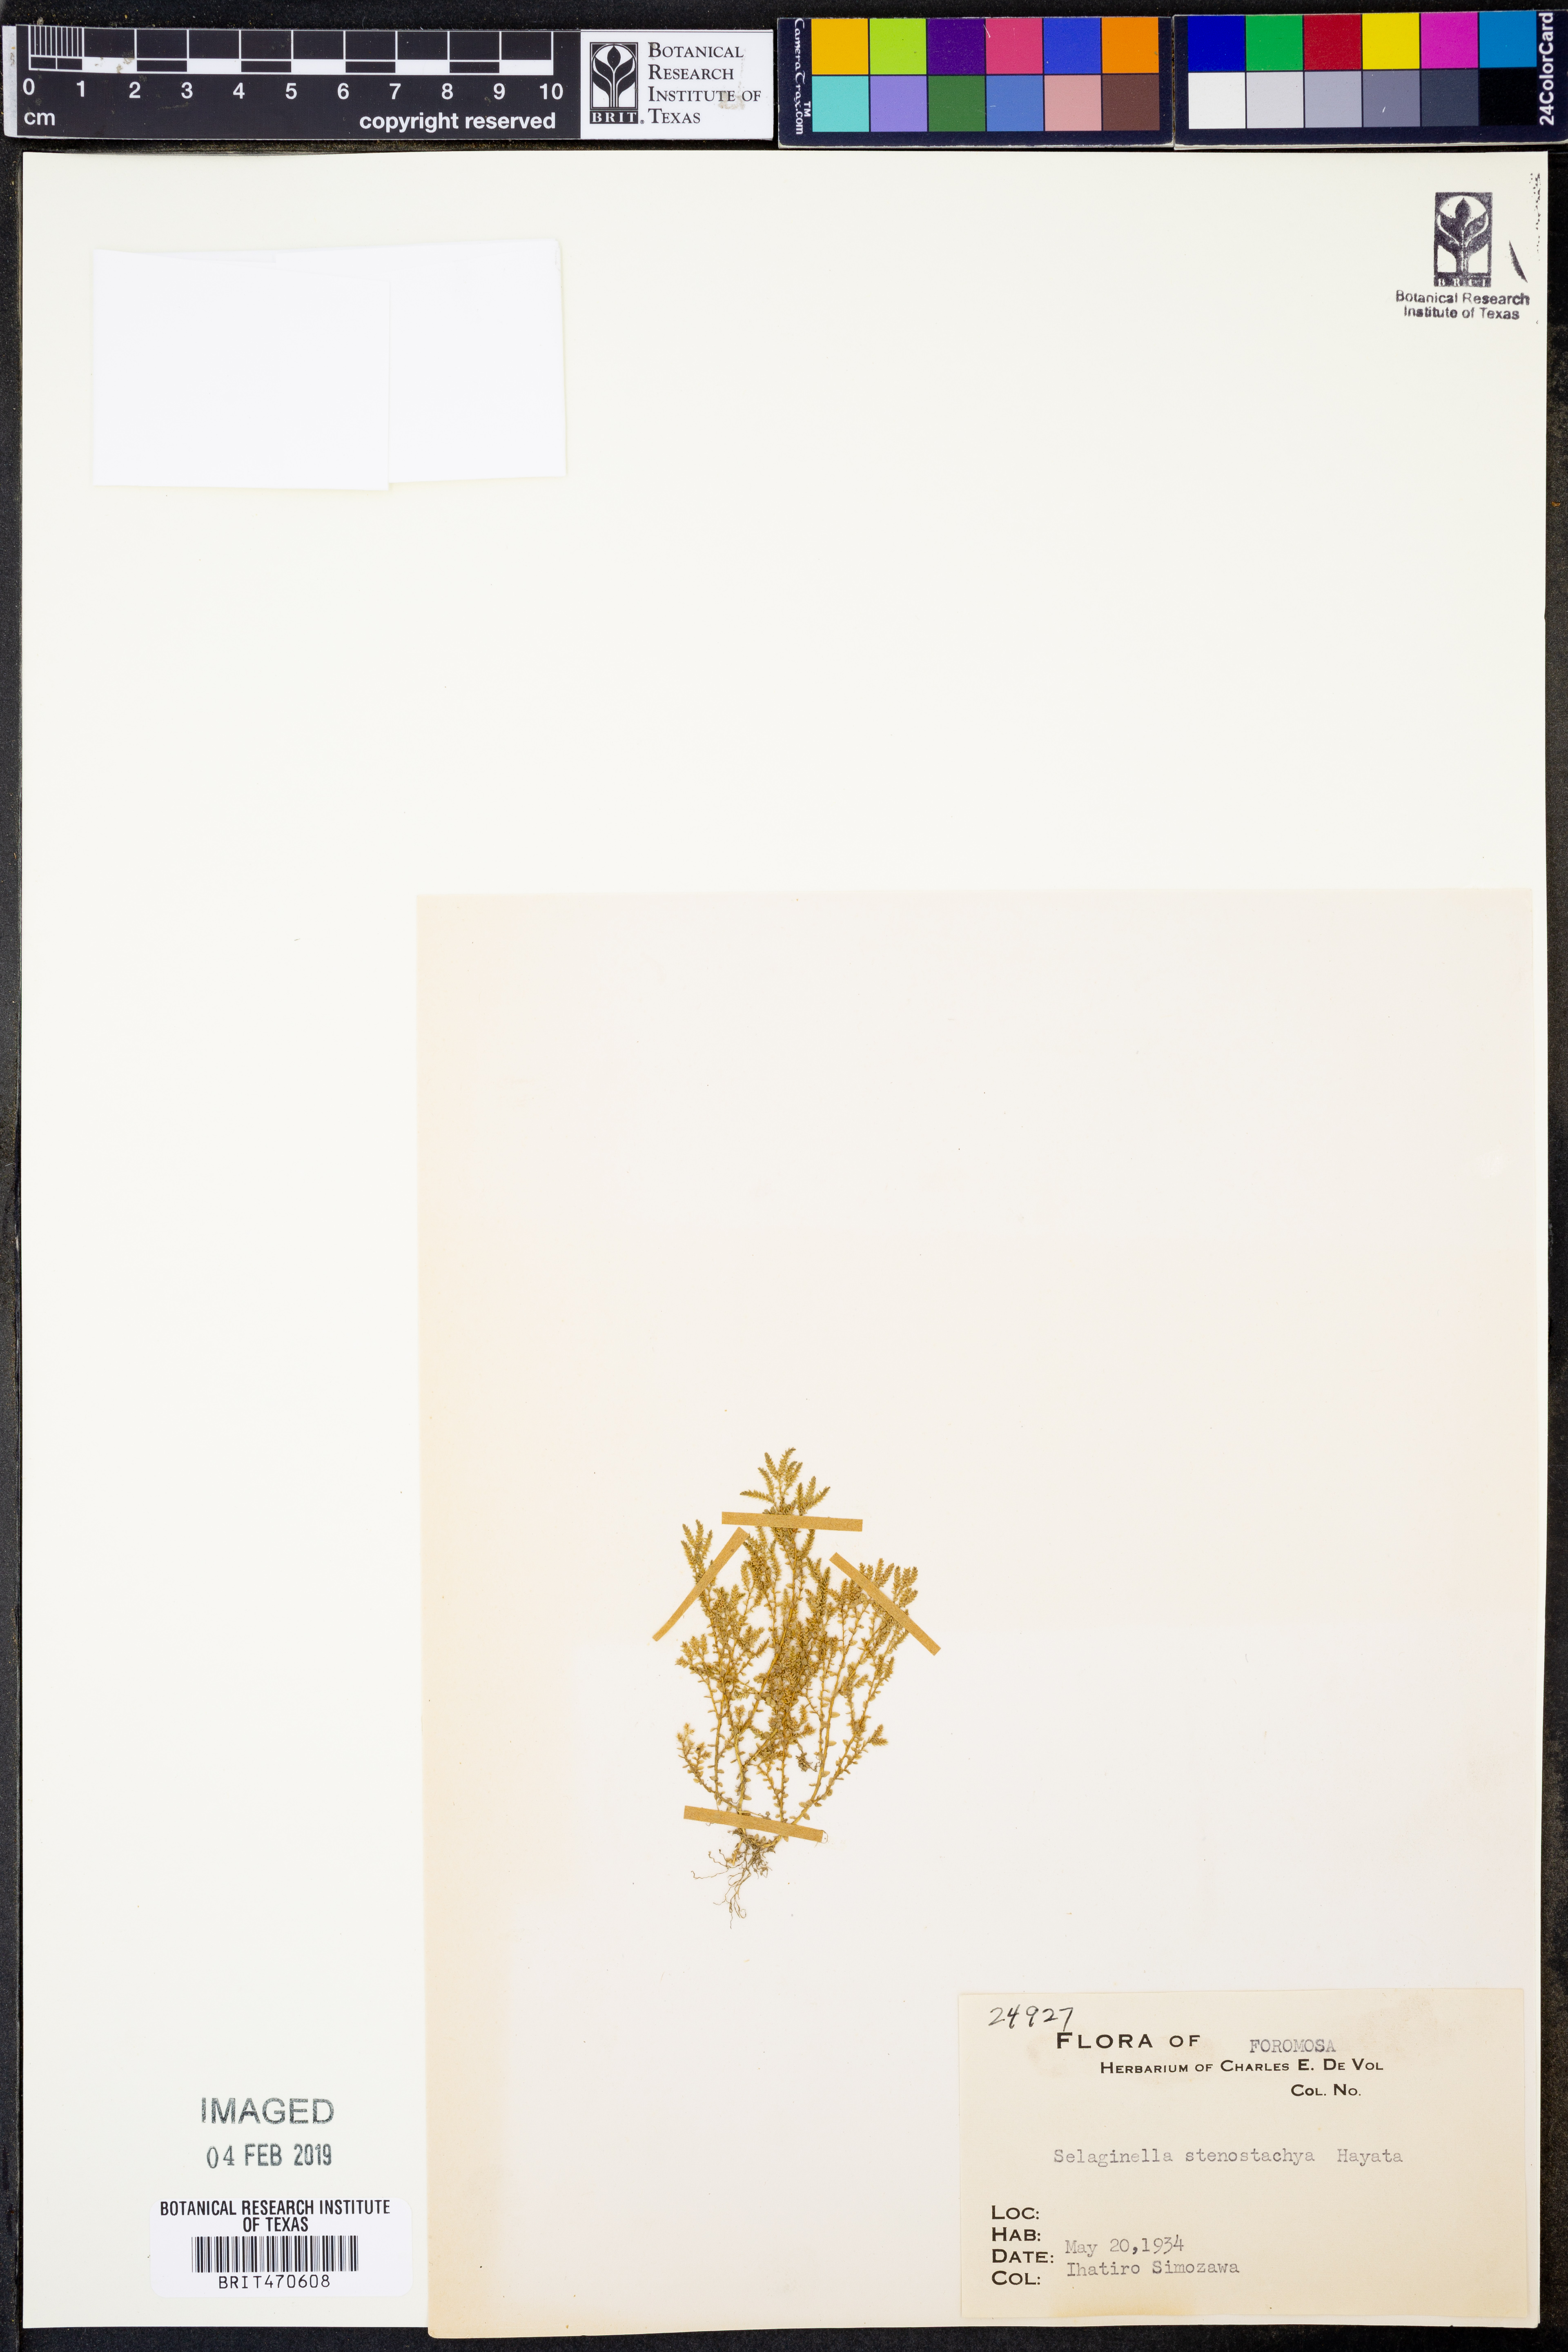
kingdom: Plantae
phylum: Tracheophyta
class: Lycopodiopsida
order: Selaginellales
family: Selaginellaceae
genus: Selaginella
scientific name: Selaginella leptophylla
